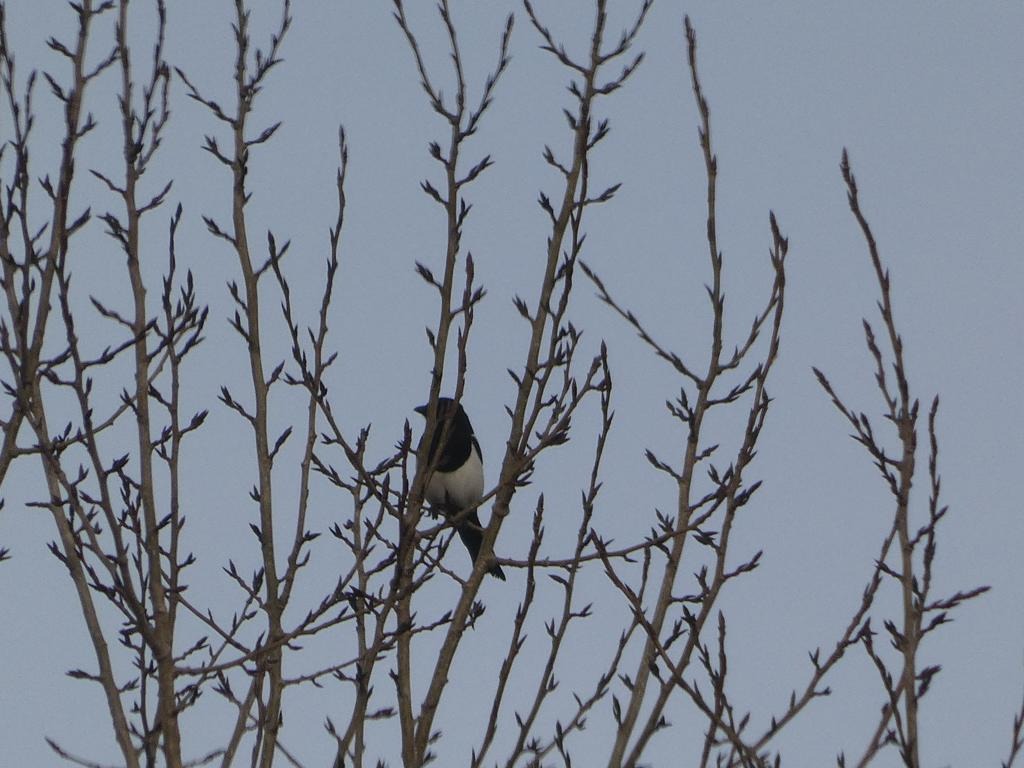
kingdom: Animalia
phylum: Chordata
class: Aves
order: Passeriformes
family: Corvidae
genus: Pica
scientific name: Pica pica
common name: Husskade
